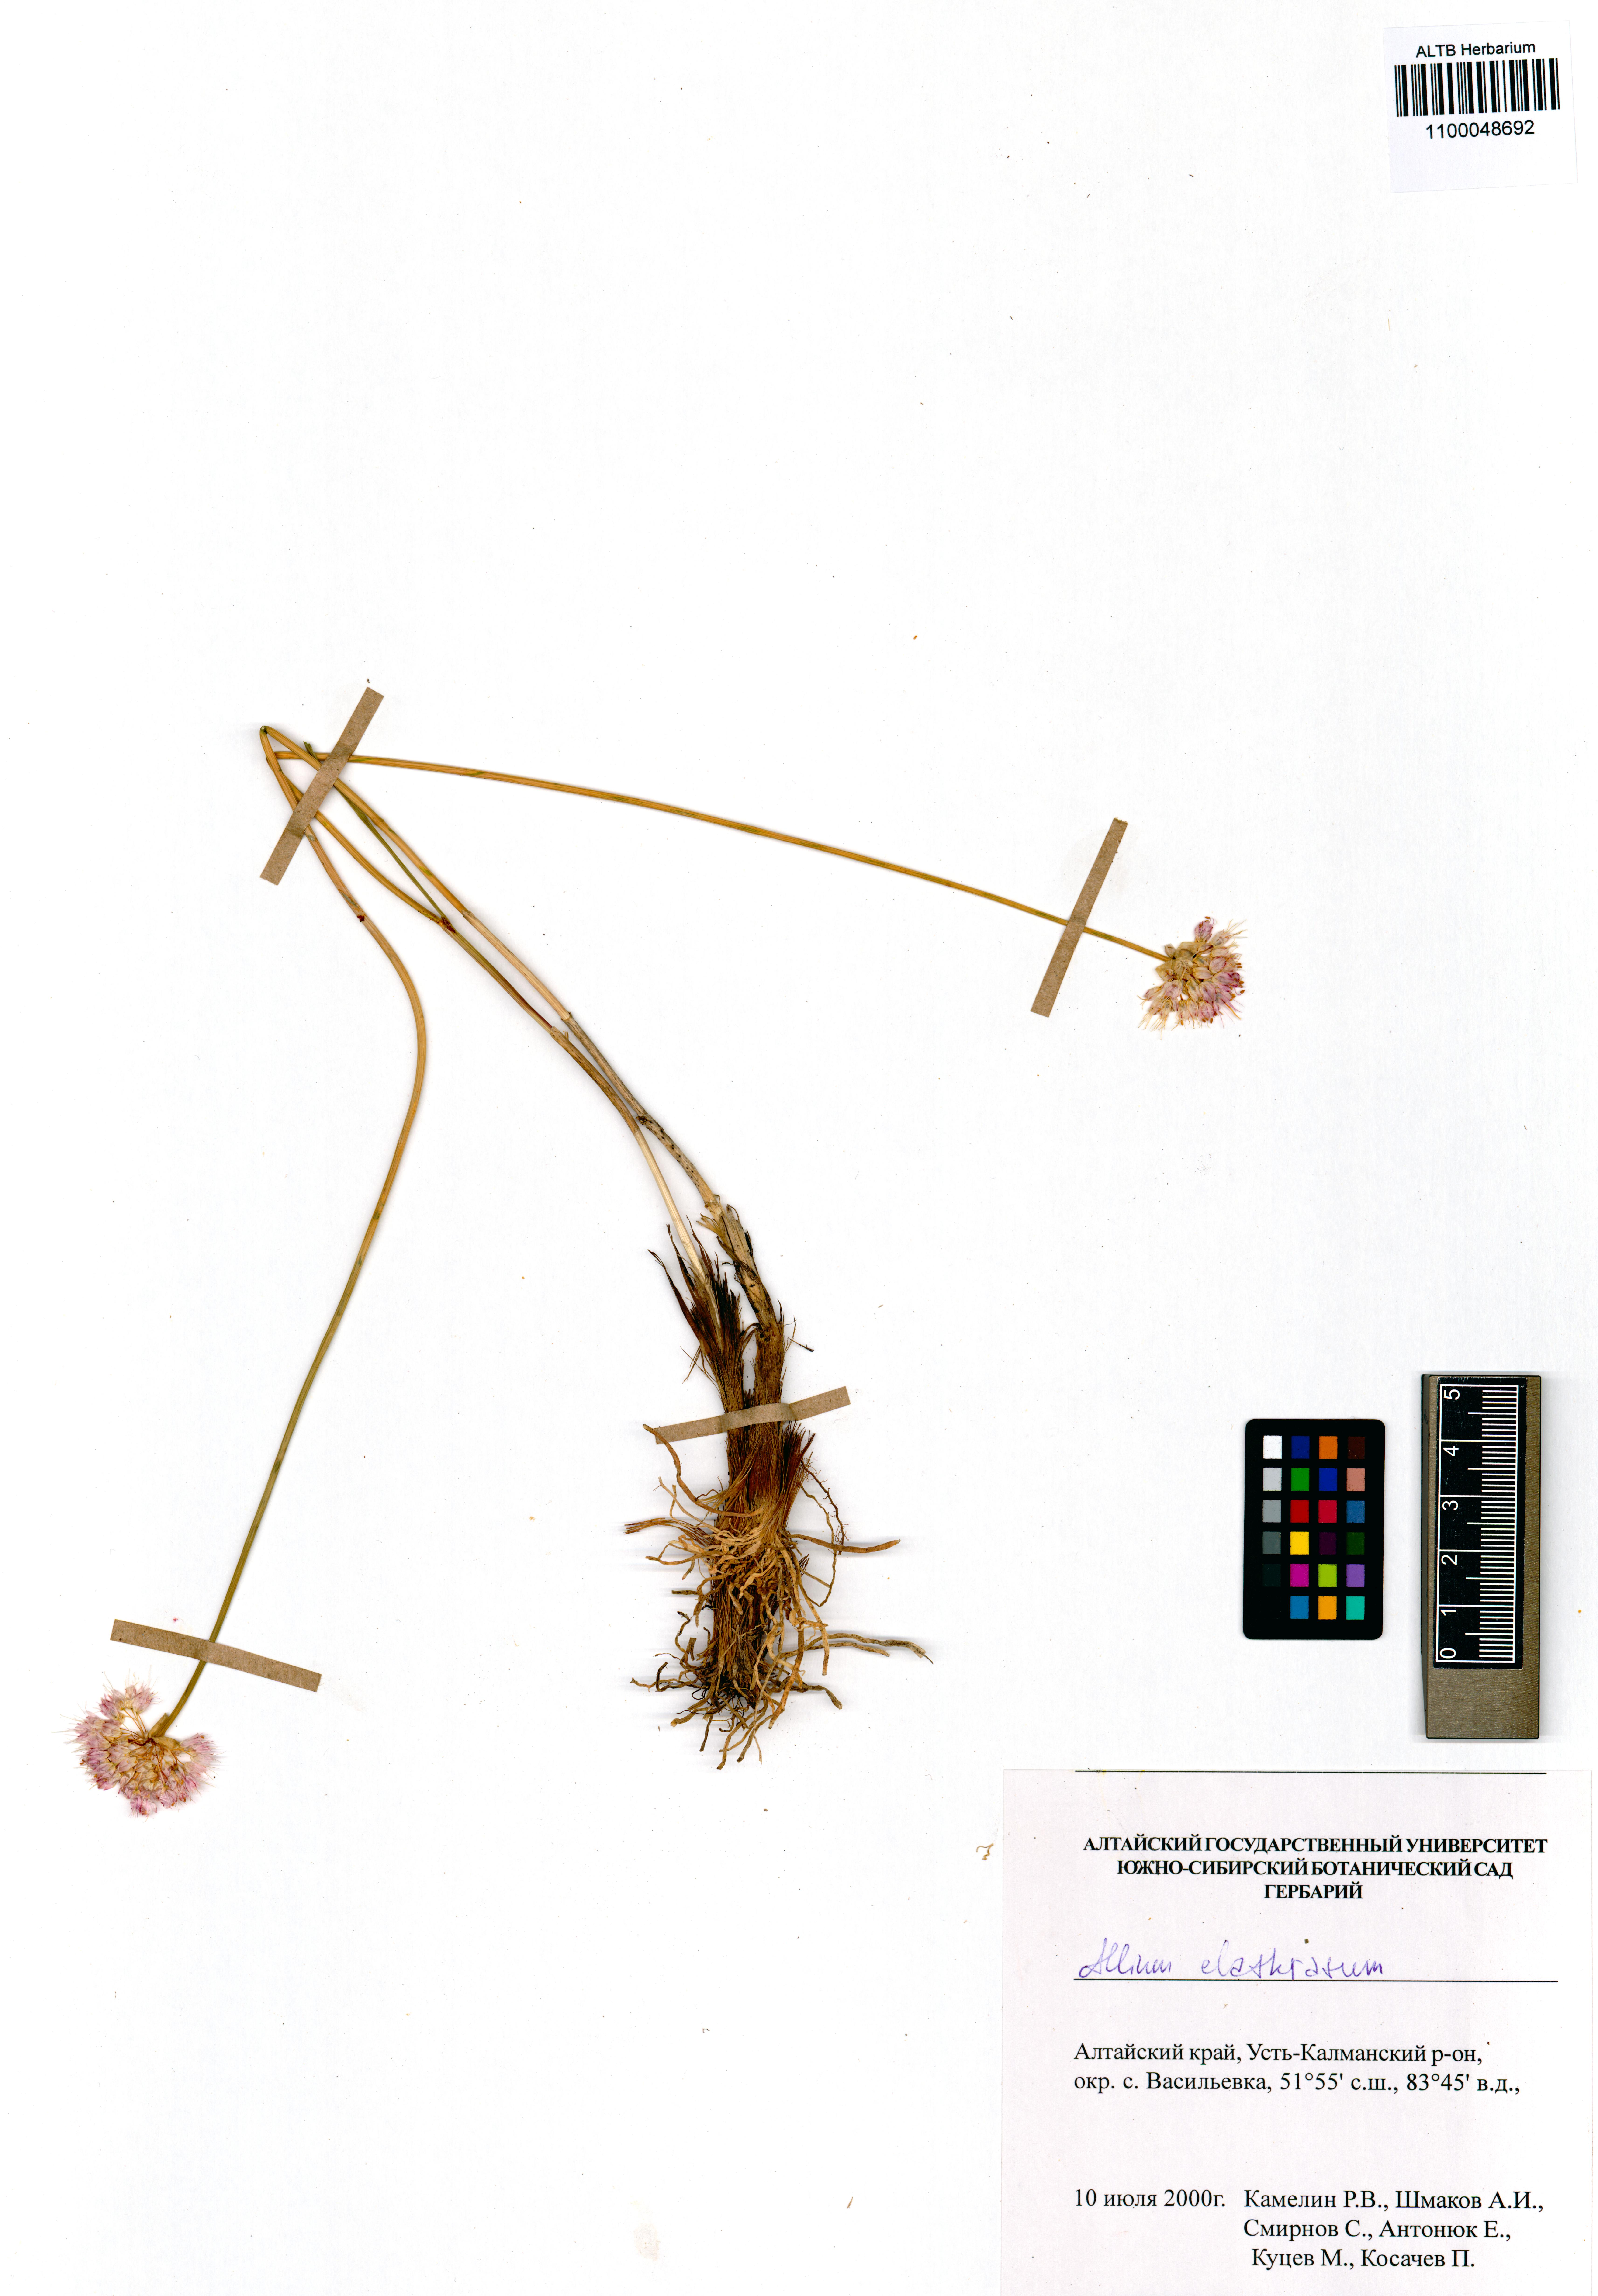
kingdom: Plantae
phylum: Tracheophyta
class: Liliopsida
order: Asparagales
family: Amaryllidaceae
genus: Allium
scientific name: Allium clathratum
